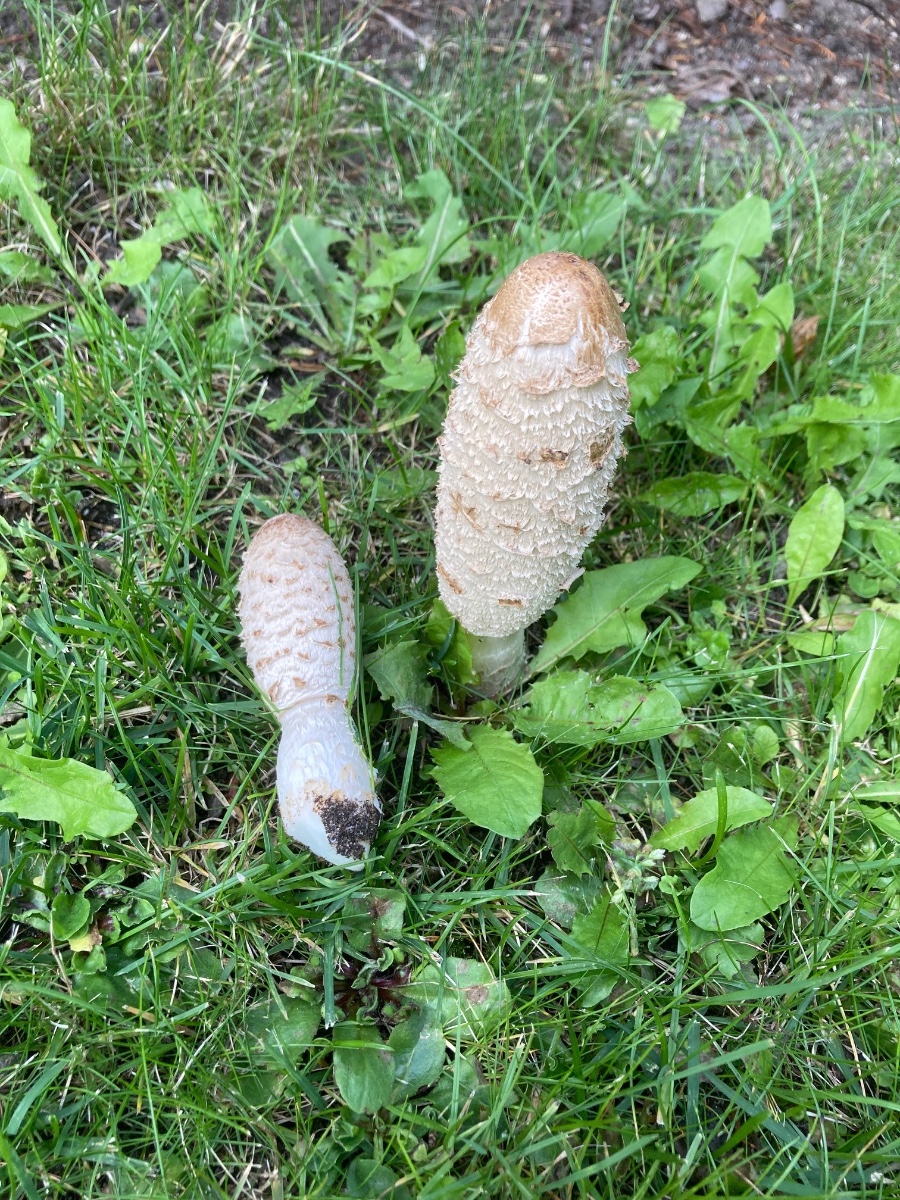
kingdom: Fungi
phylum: Basidiomycota
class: Agaricomycetes
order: Agaricales
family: Agaricaceae
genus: Coprinus
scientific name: Coprinus comatus
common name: stor parykhat
